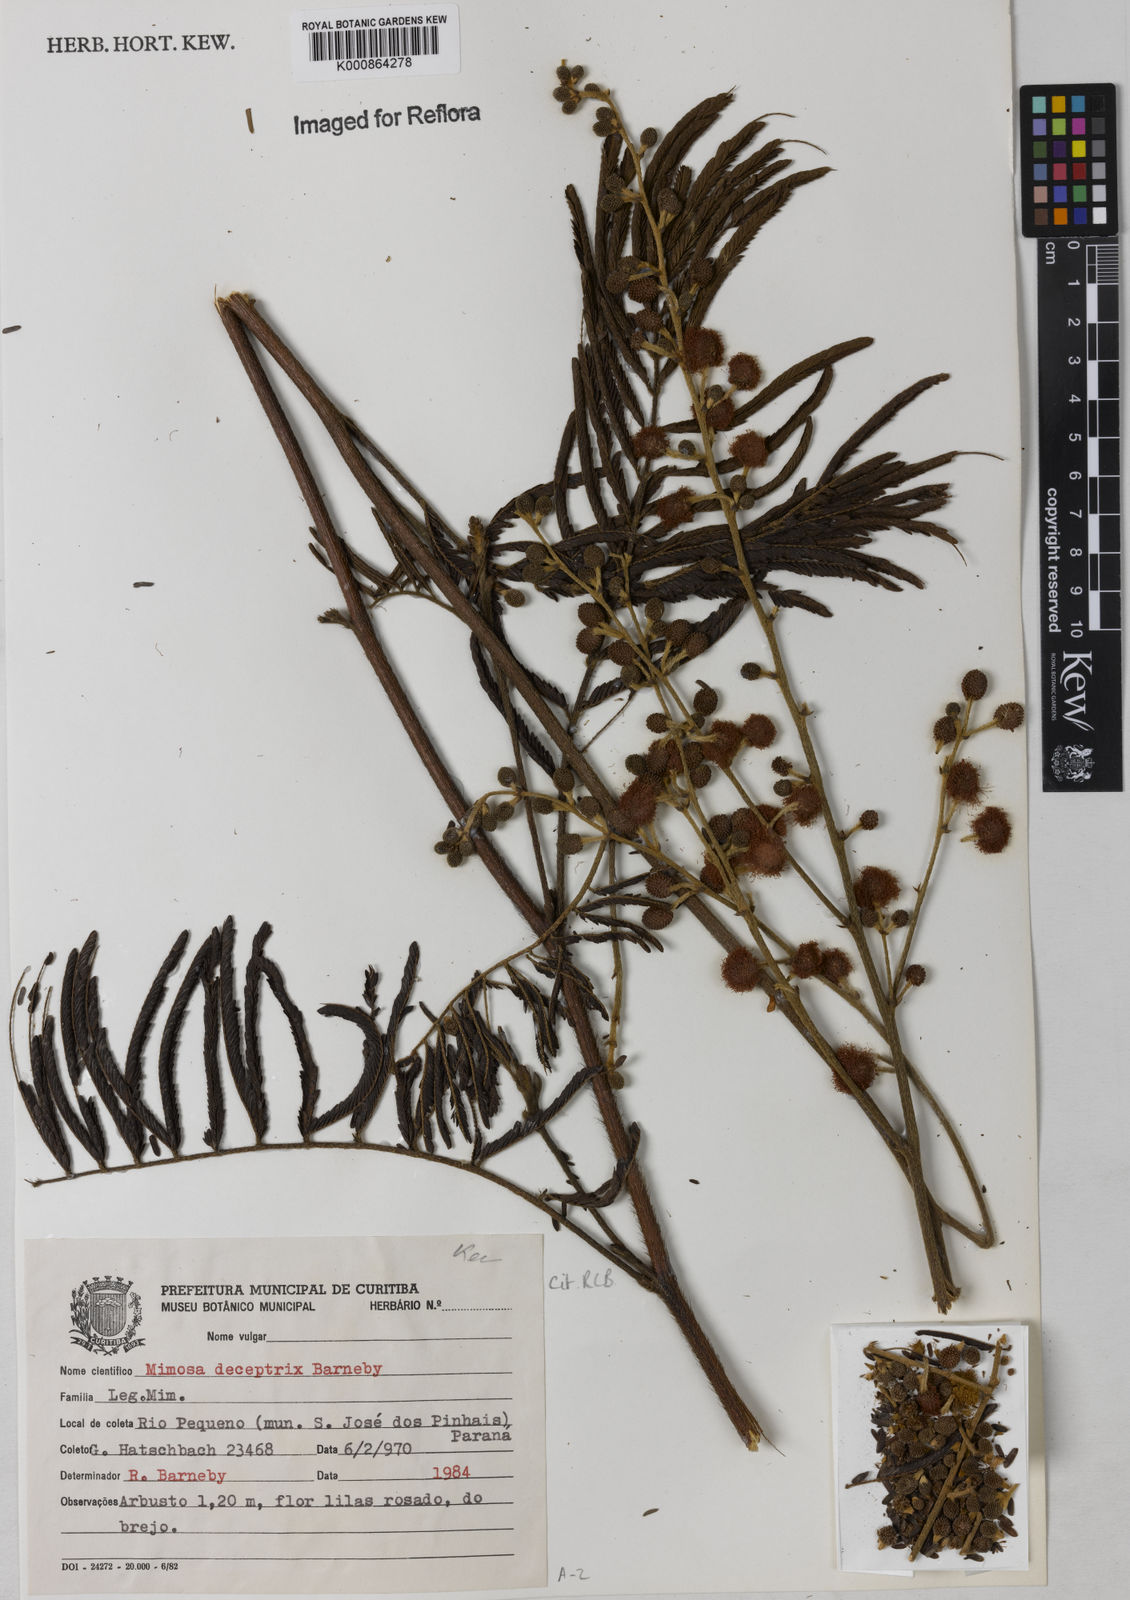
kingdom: Plantae
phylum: Tracheophyta
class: Magnoliopsida
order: Fabales
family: Fabaceae
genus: Mimosa
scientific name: Mimosa deceptrix
